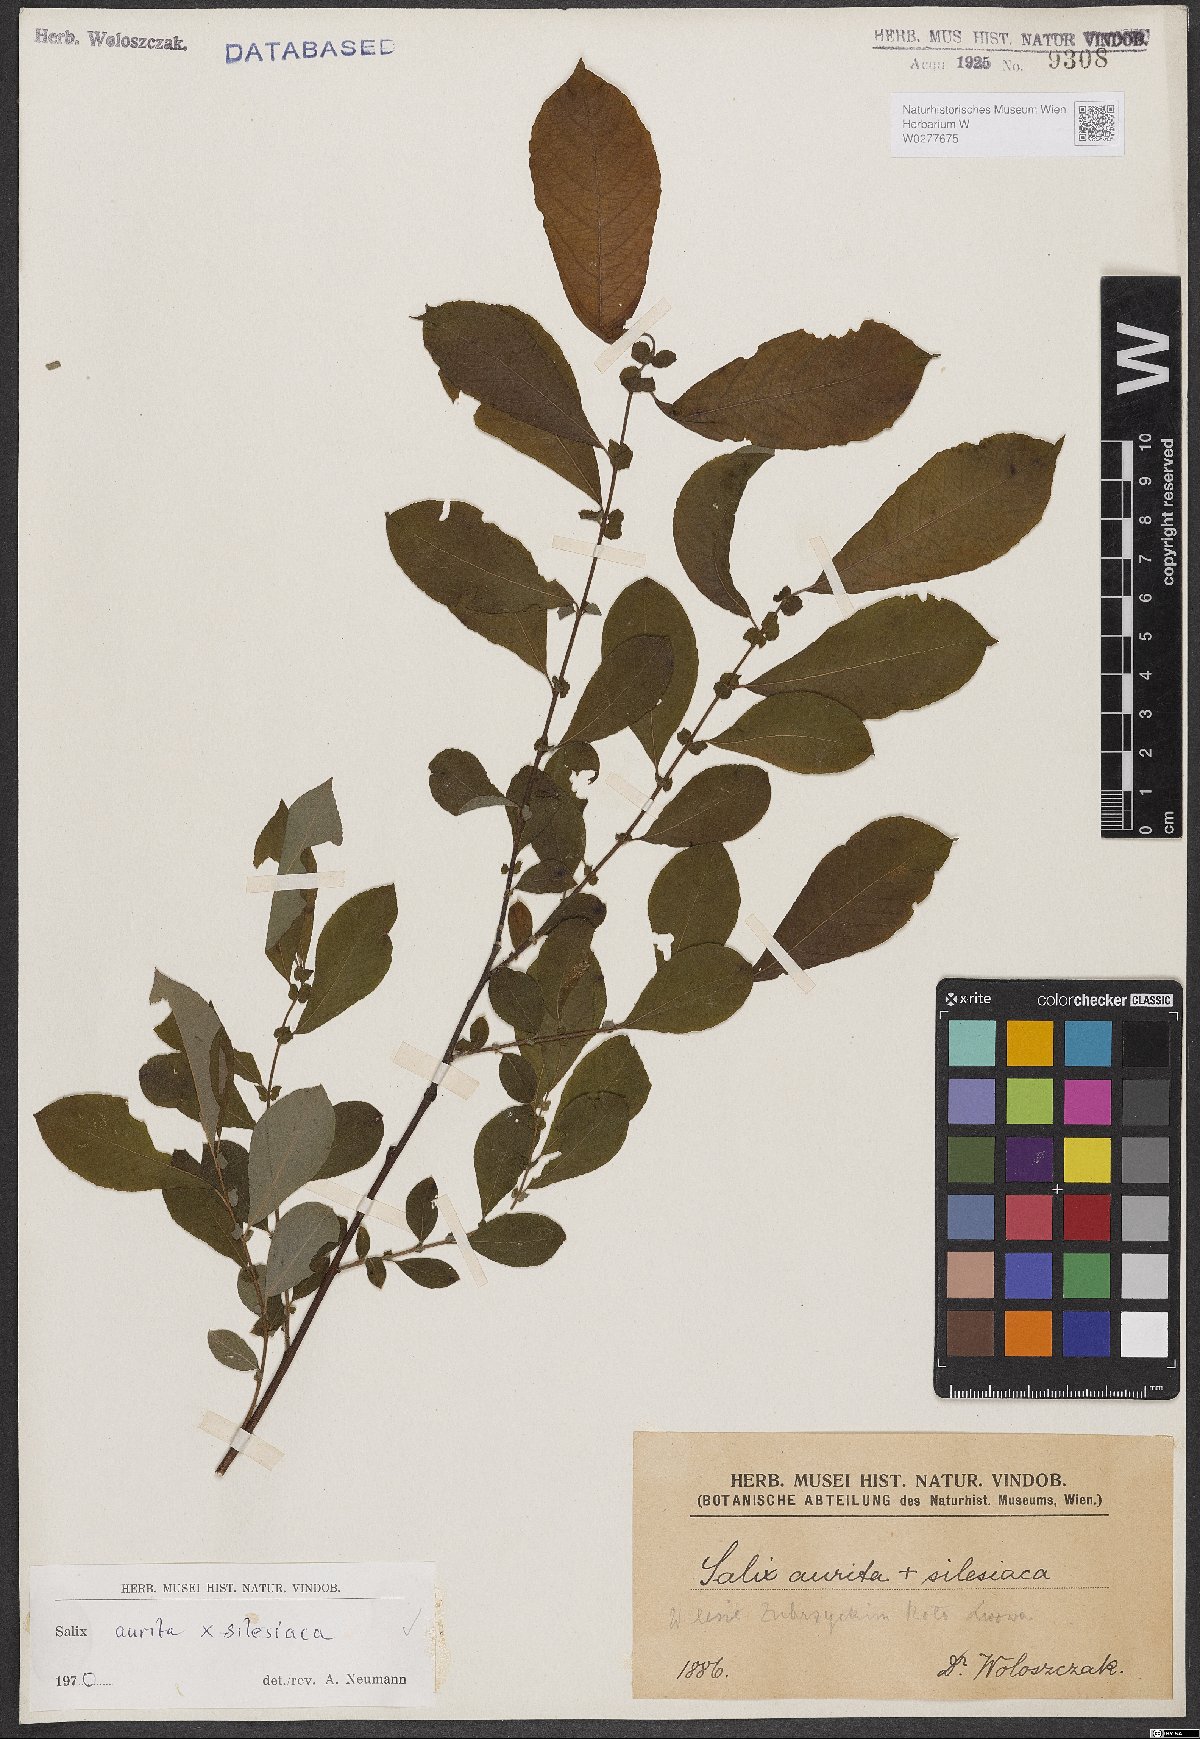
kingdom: Plantae
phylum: Tracheophyta
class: Magnoliopsida
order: Malpighiales
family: Salicaceae
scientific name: Salicaceae
